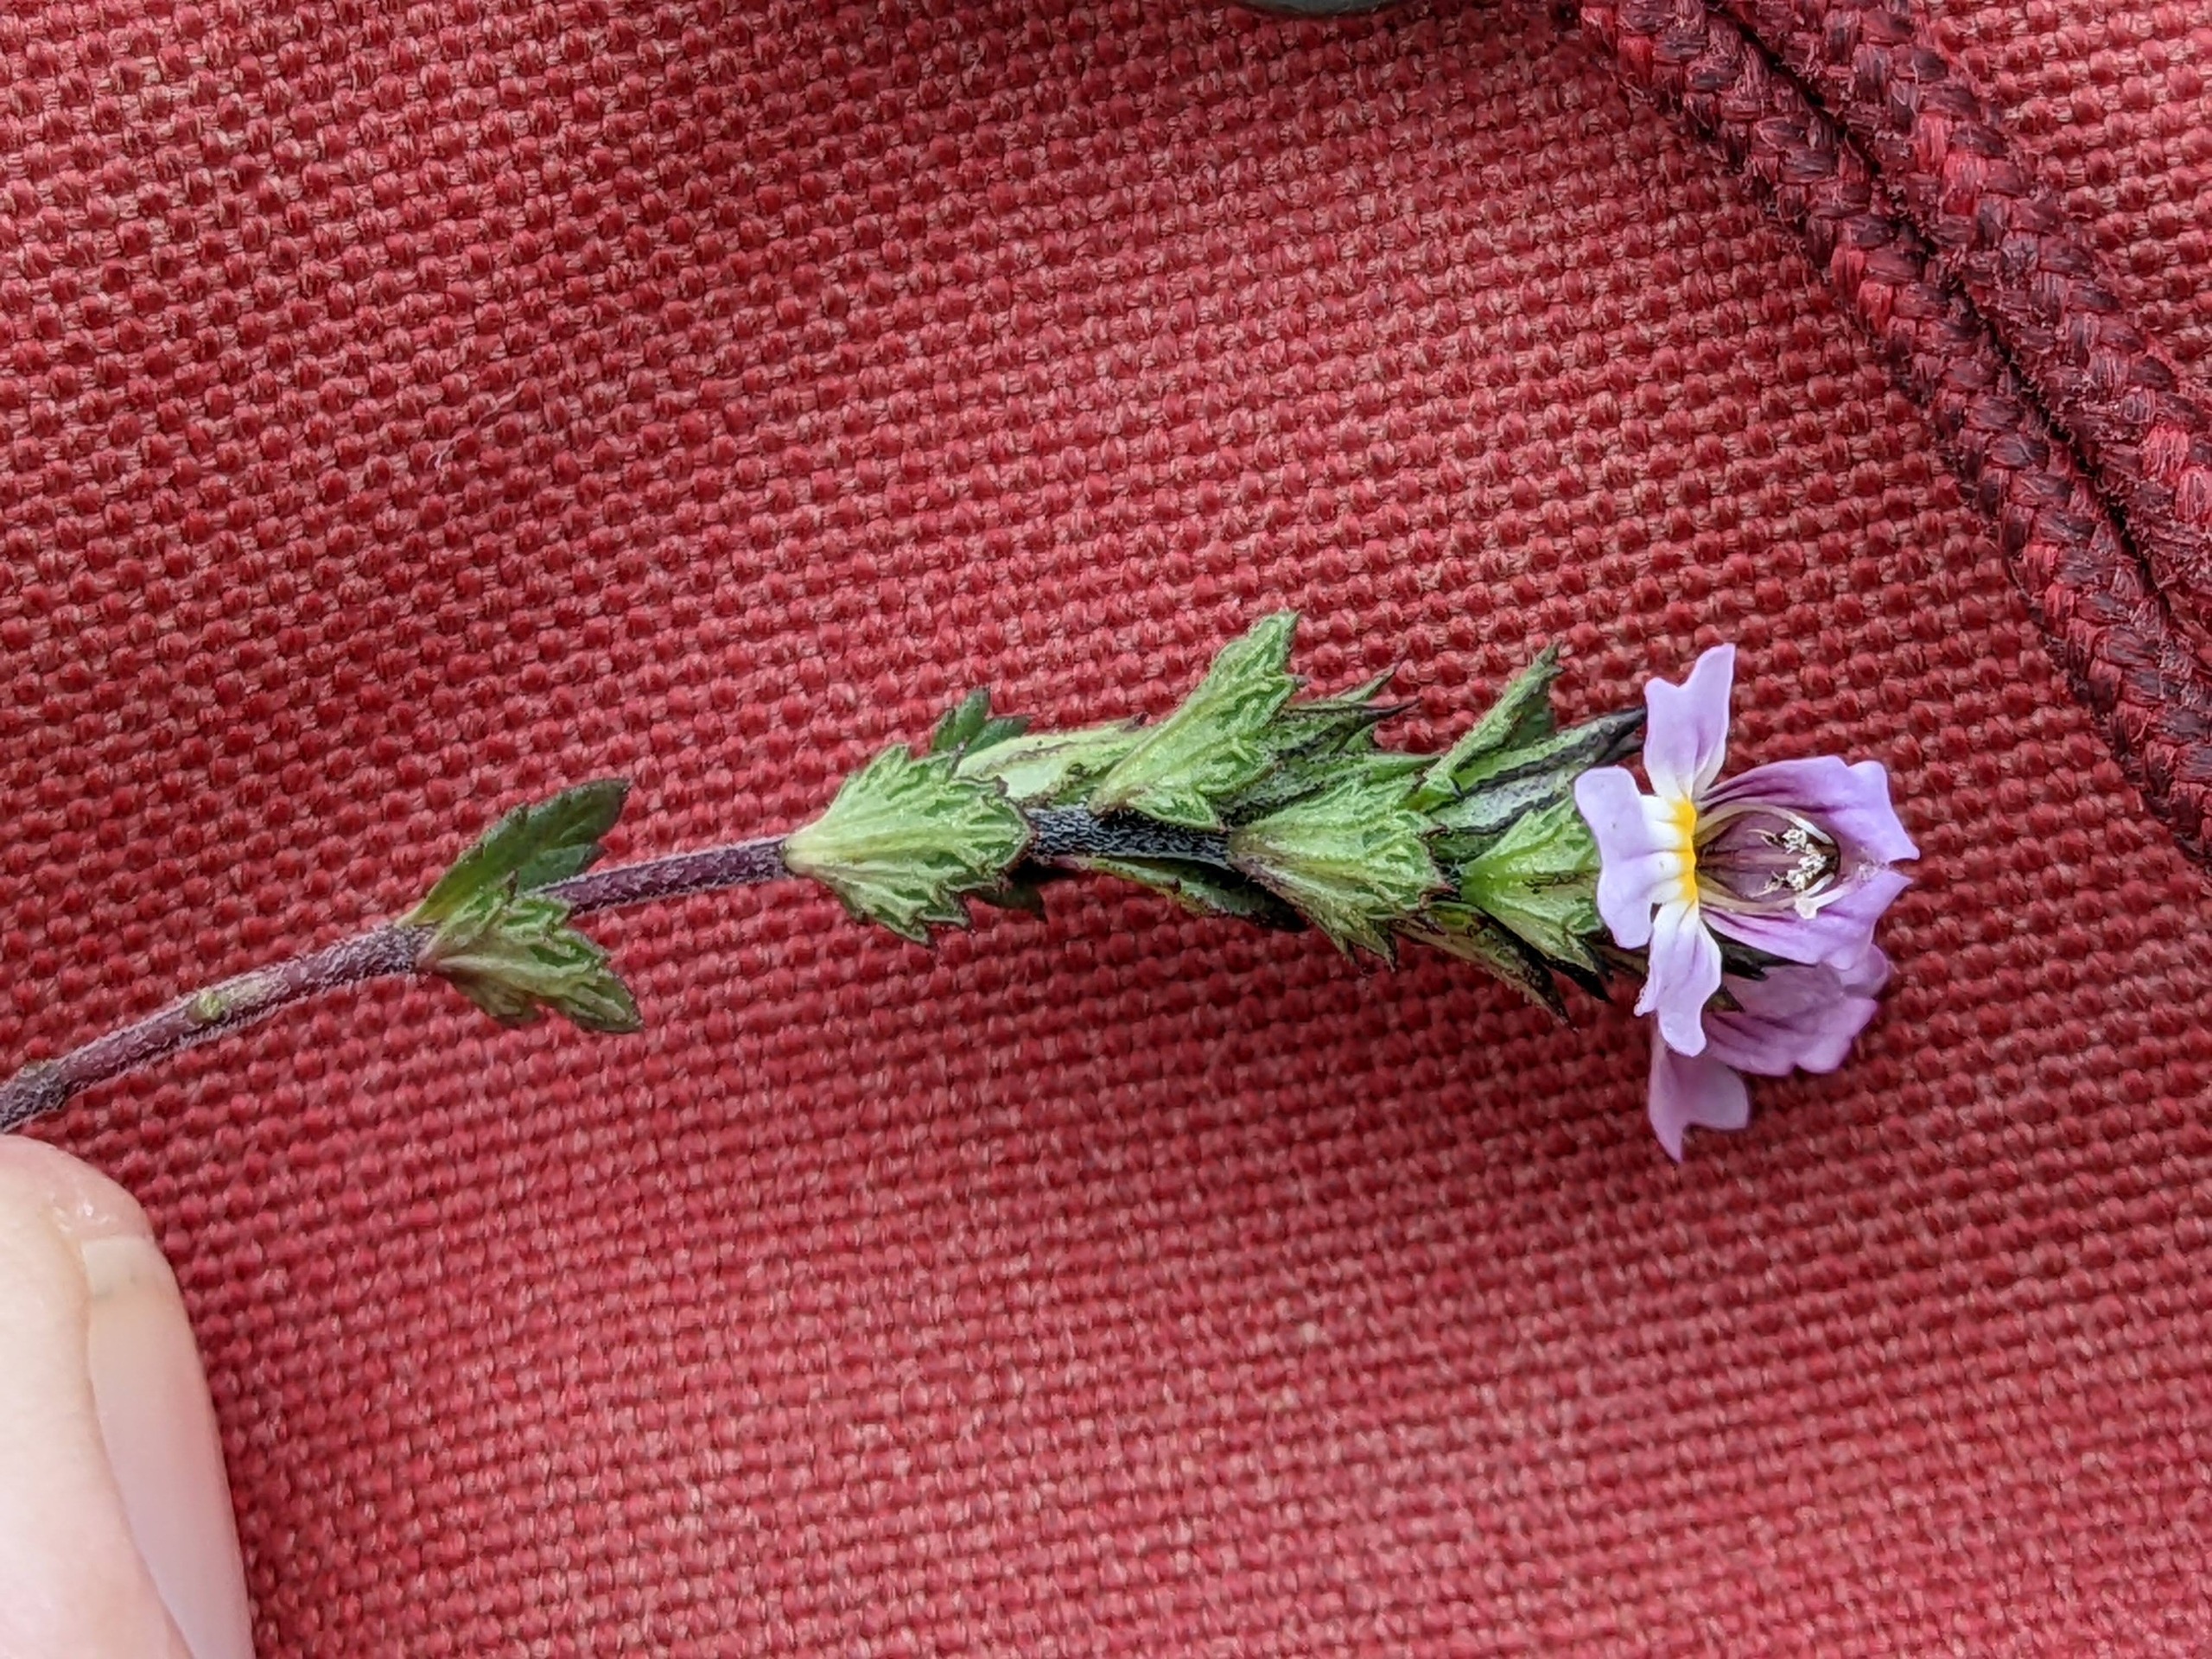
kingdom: Plantae
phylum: Tracheophyta
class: Magnoliopsida
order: Lamiales
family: Orobanchaceae
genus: Euphrasia
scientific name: Euphrasia nemorosa
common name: Kort øjentrøst
